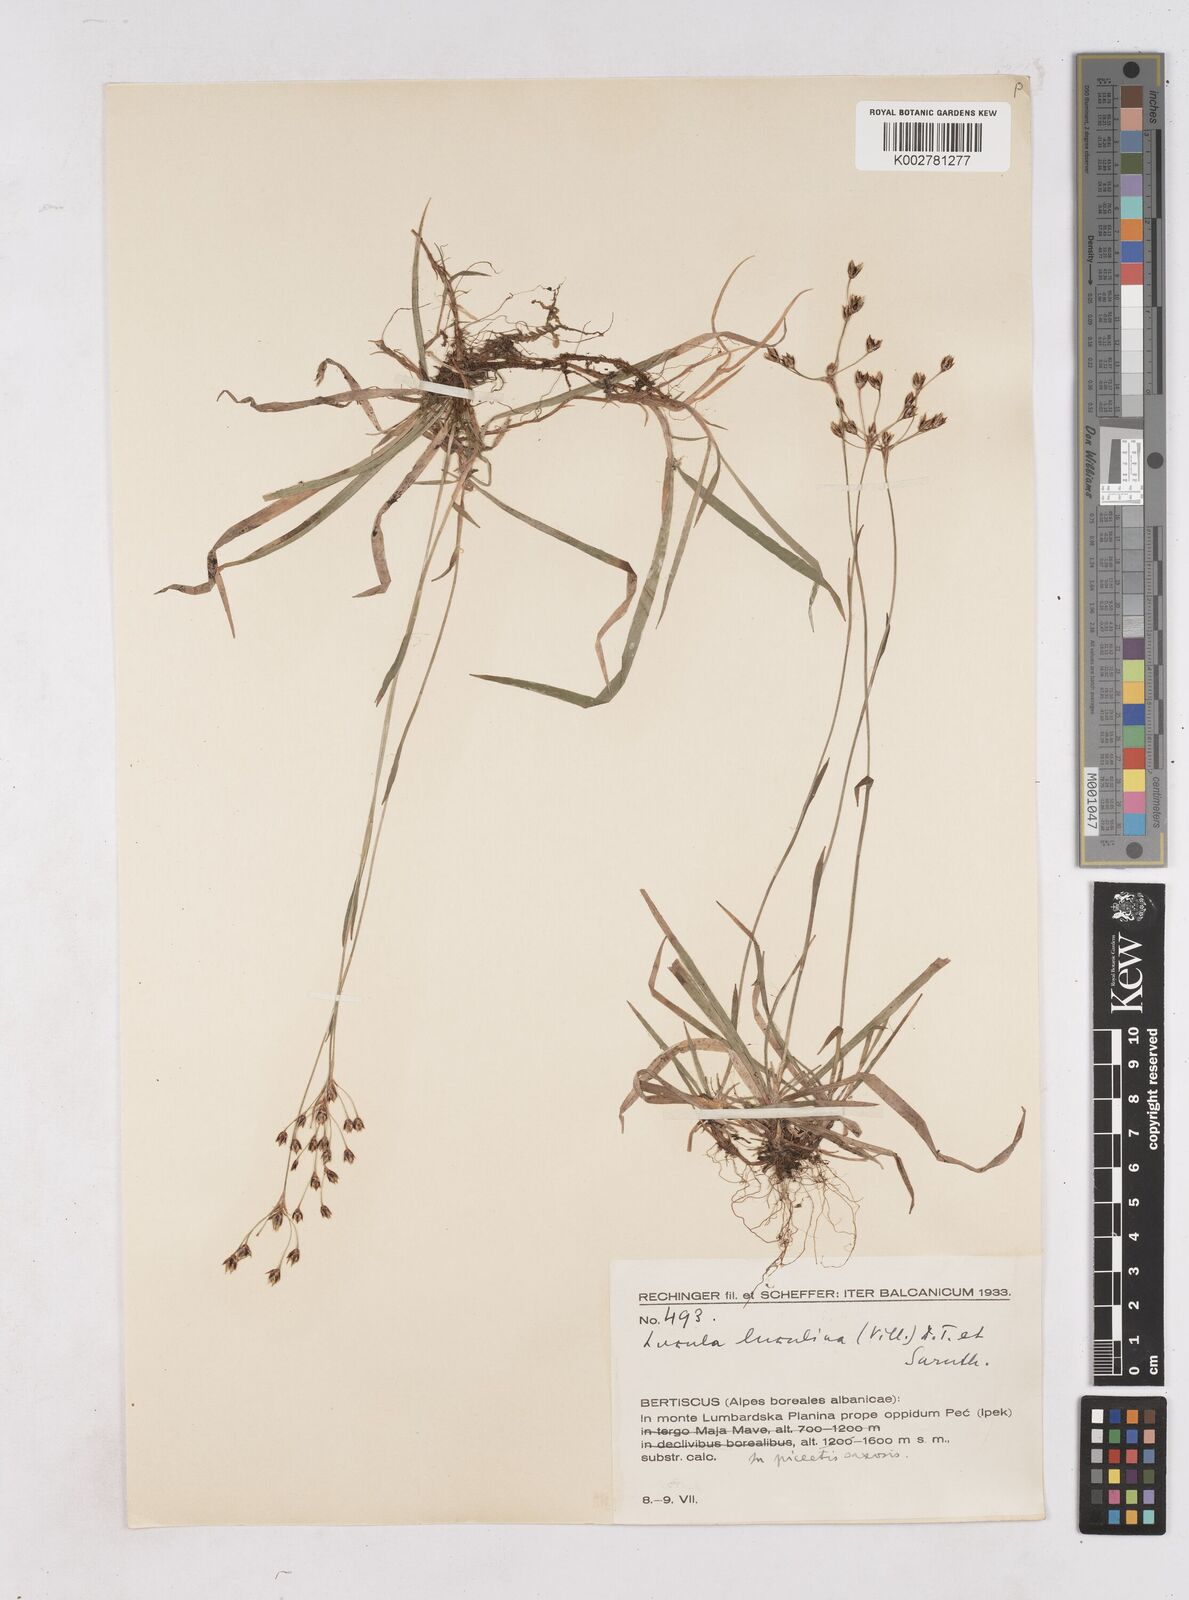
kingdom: Plantae
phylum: Tracheophyta
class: Liliopsida
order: Poales
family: Juncaceae
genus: Luzula
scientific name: Luzula luzulina
